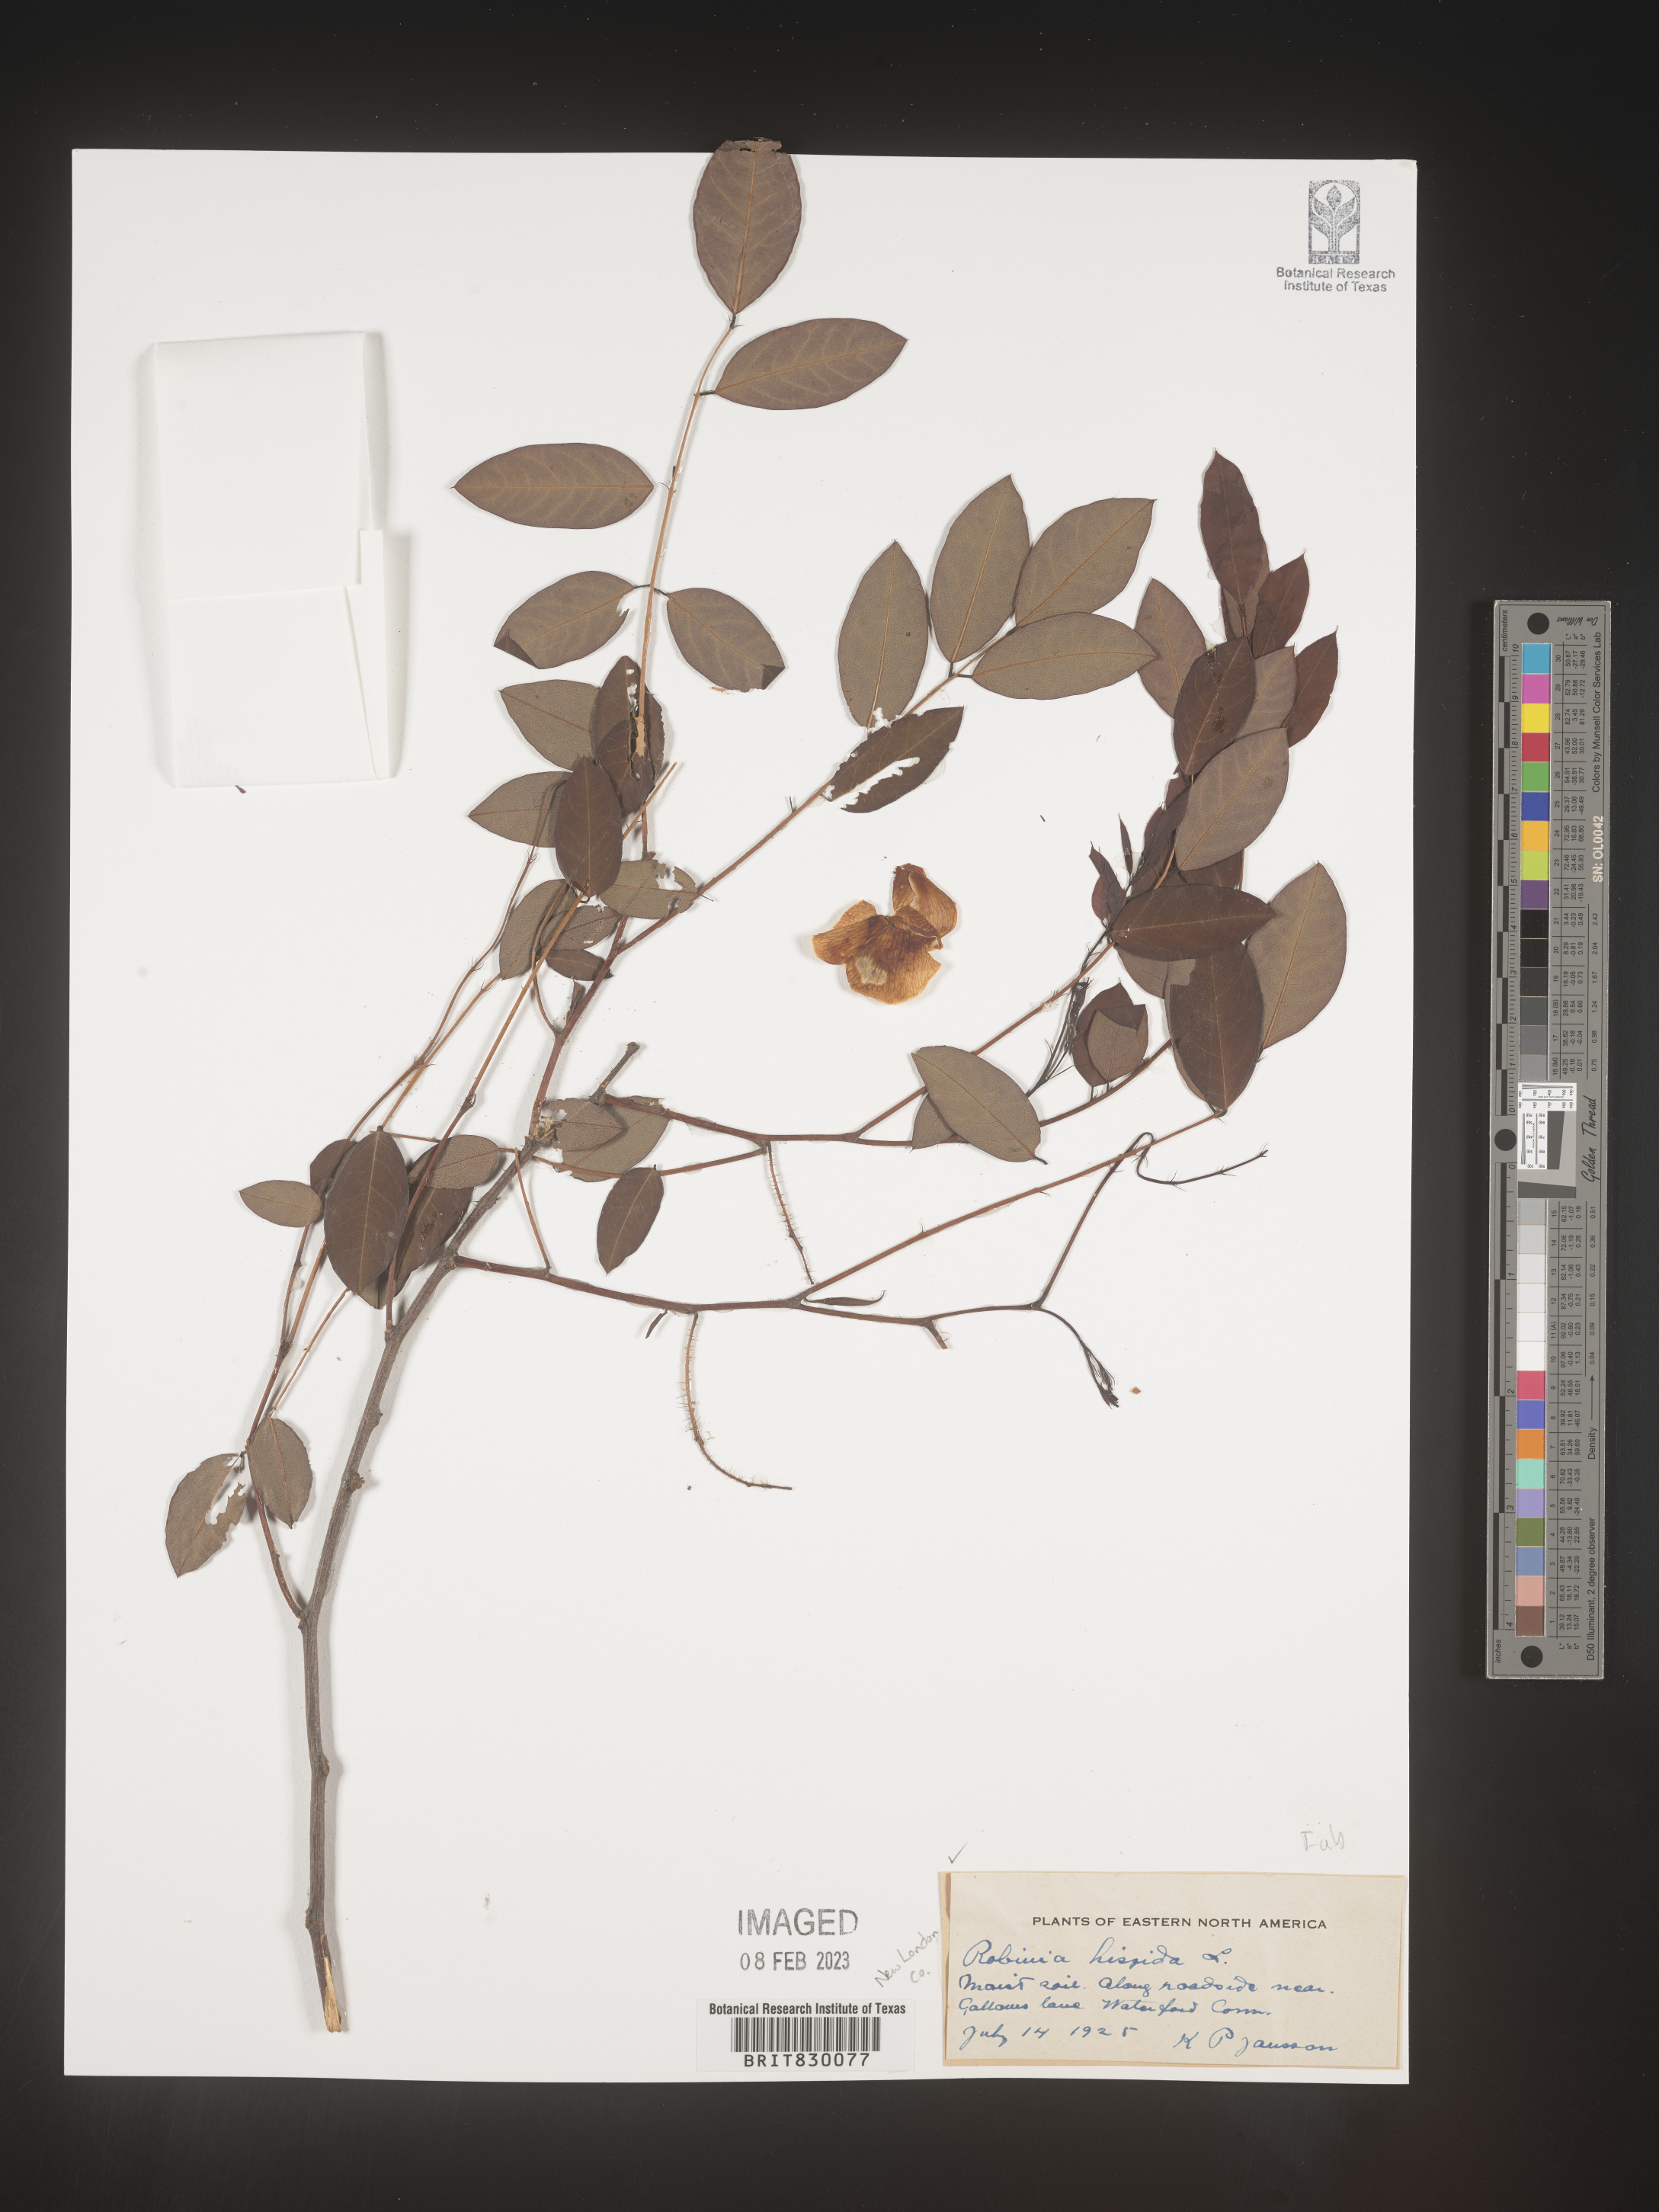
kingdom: Plantae
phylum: Tracheophyta
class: Magnoliopsida
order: Fabales
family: Fabaceae
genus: Robinia
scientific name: Robinia hispida
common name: Bristly locust
